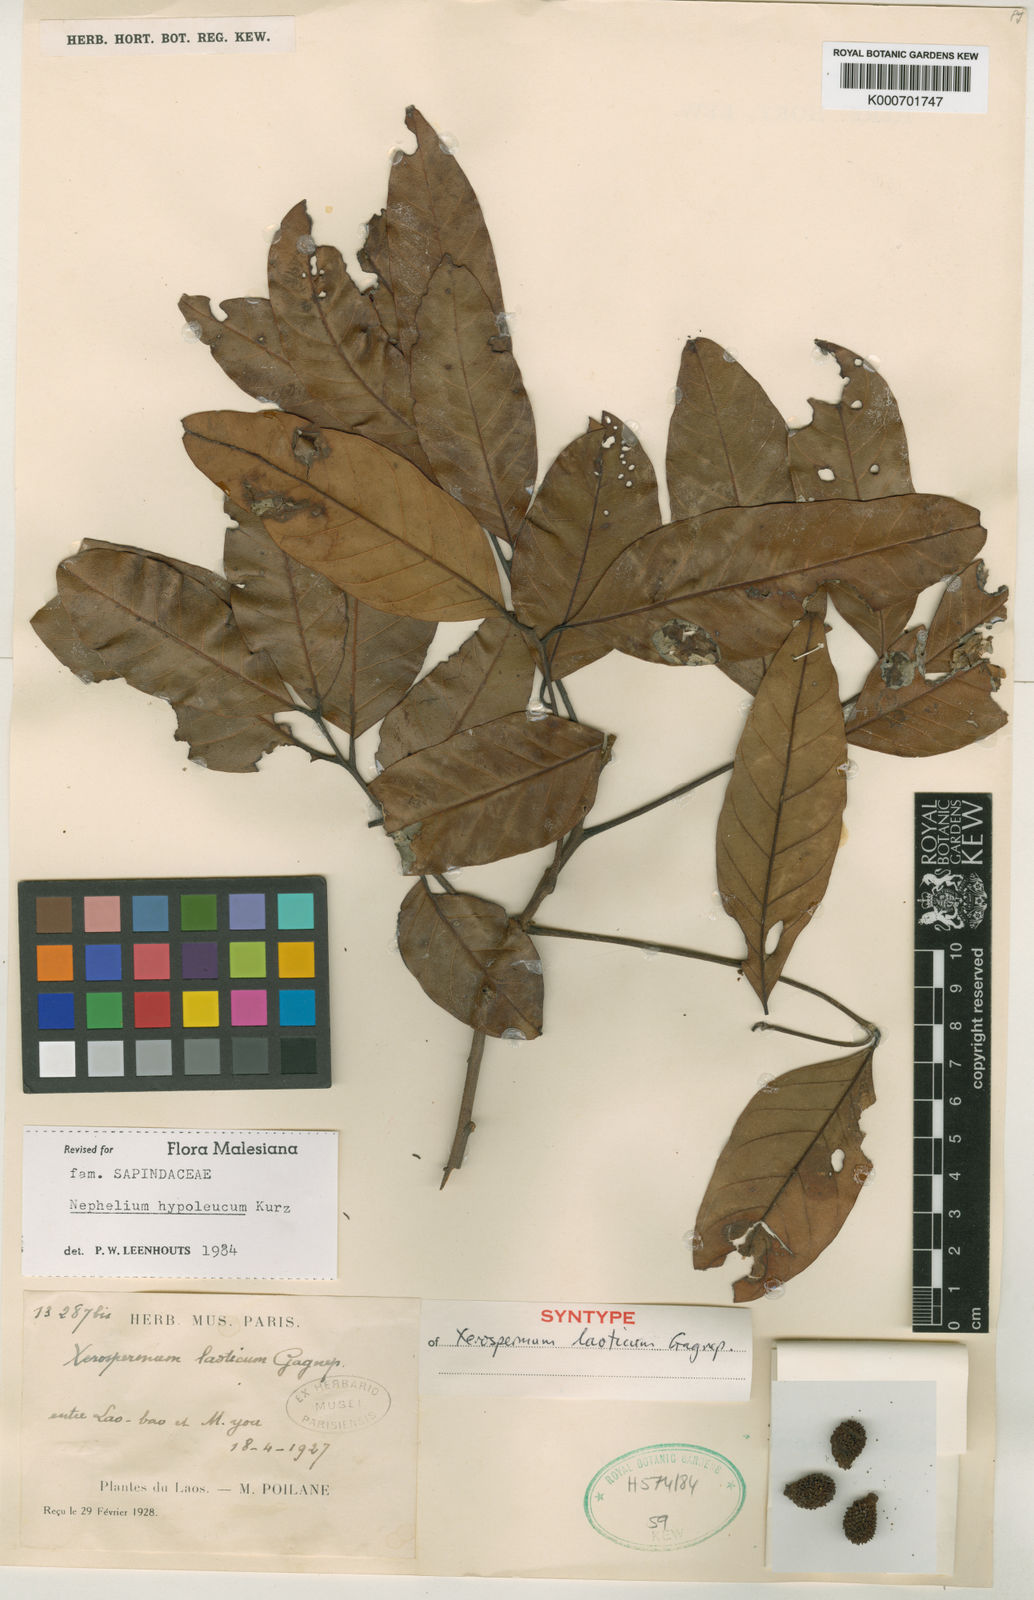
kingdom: Plantae
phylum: Tracheophyta
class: Magnoliopsida
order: Sapindales
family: Sapindaceae
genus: Nephelium
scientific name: Nephelium hypoleucum
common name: Korlan
